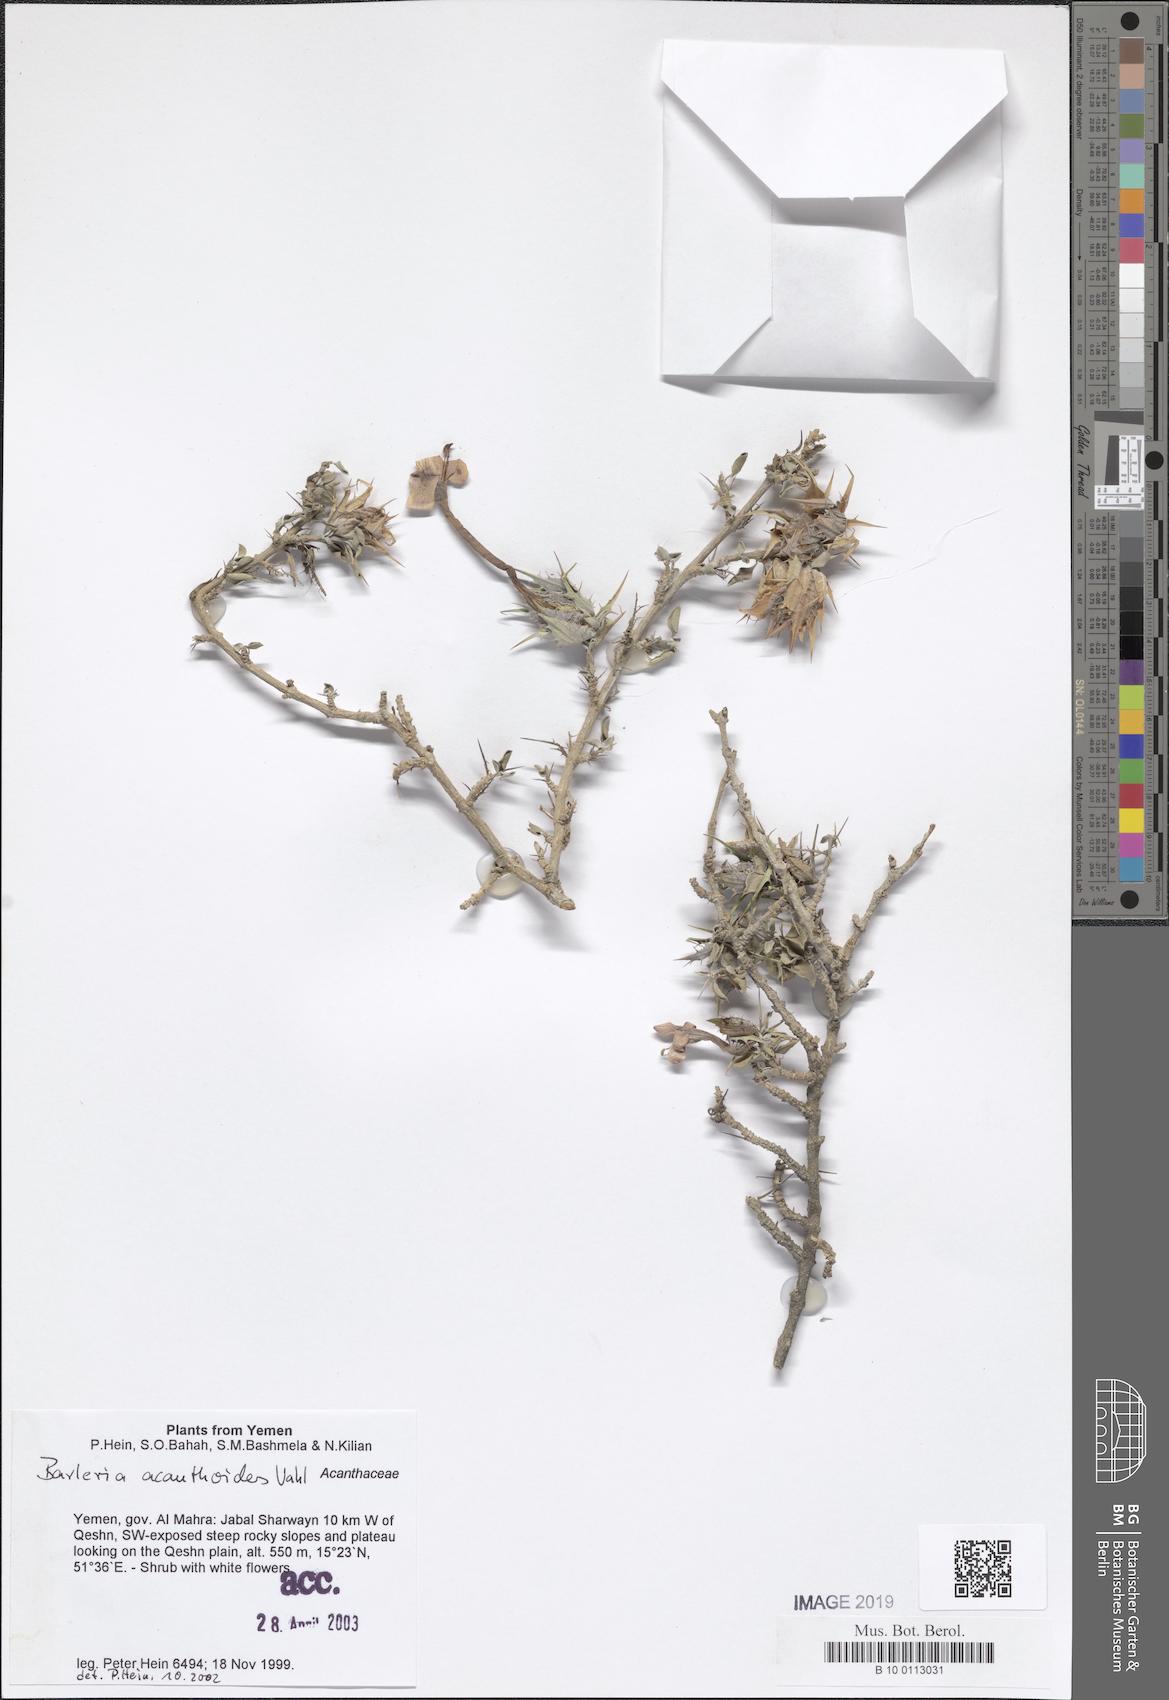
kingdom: Plantae
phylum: Tracheophyta
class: Magnoliopsida
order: Lamiales
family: Acanthaceae
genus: Barleria
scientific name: Barleria acanthoides
